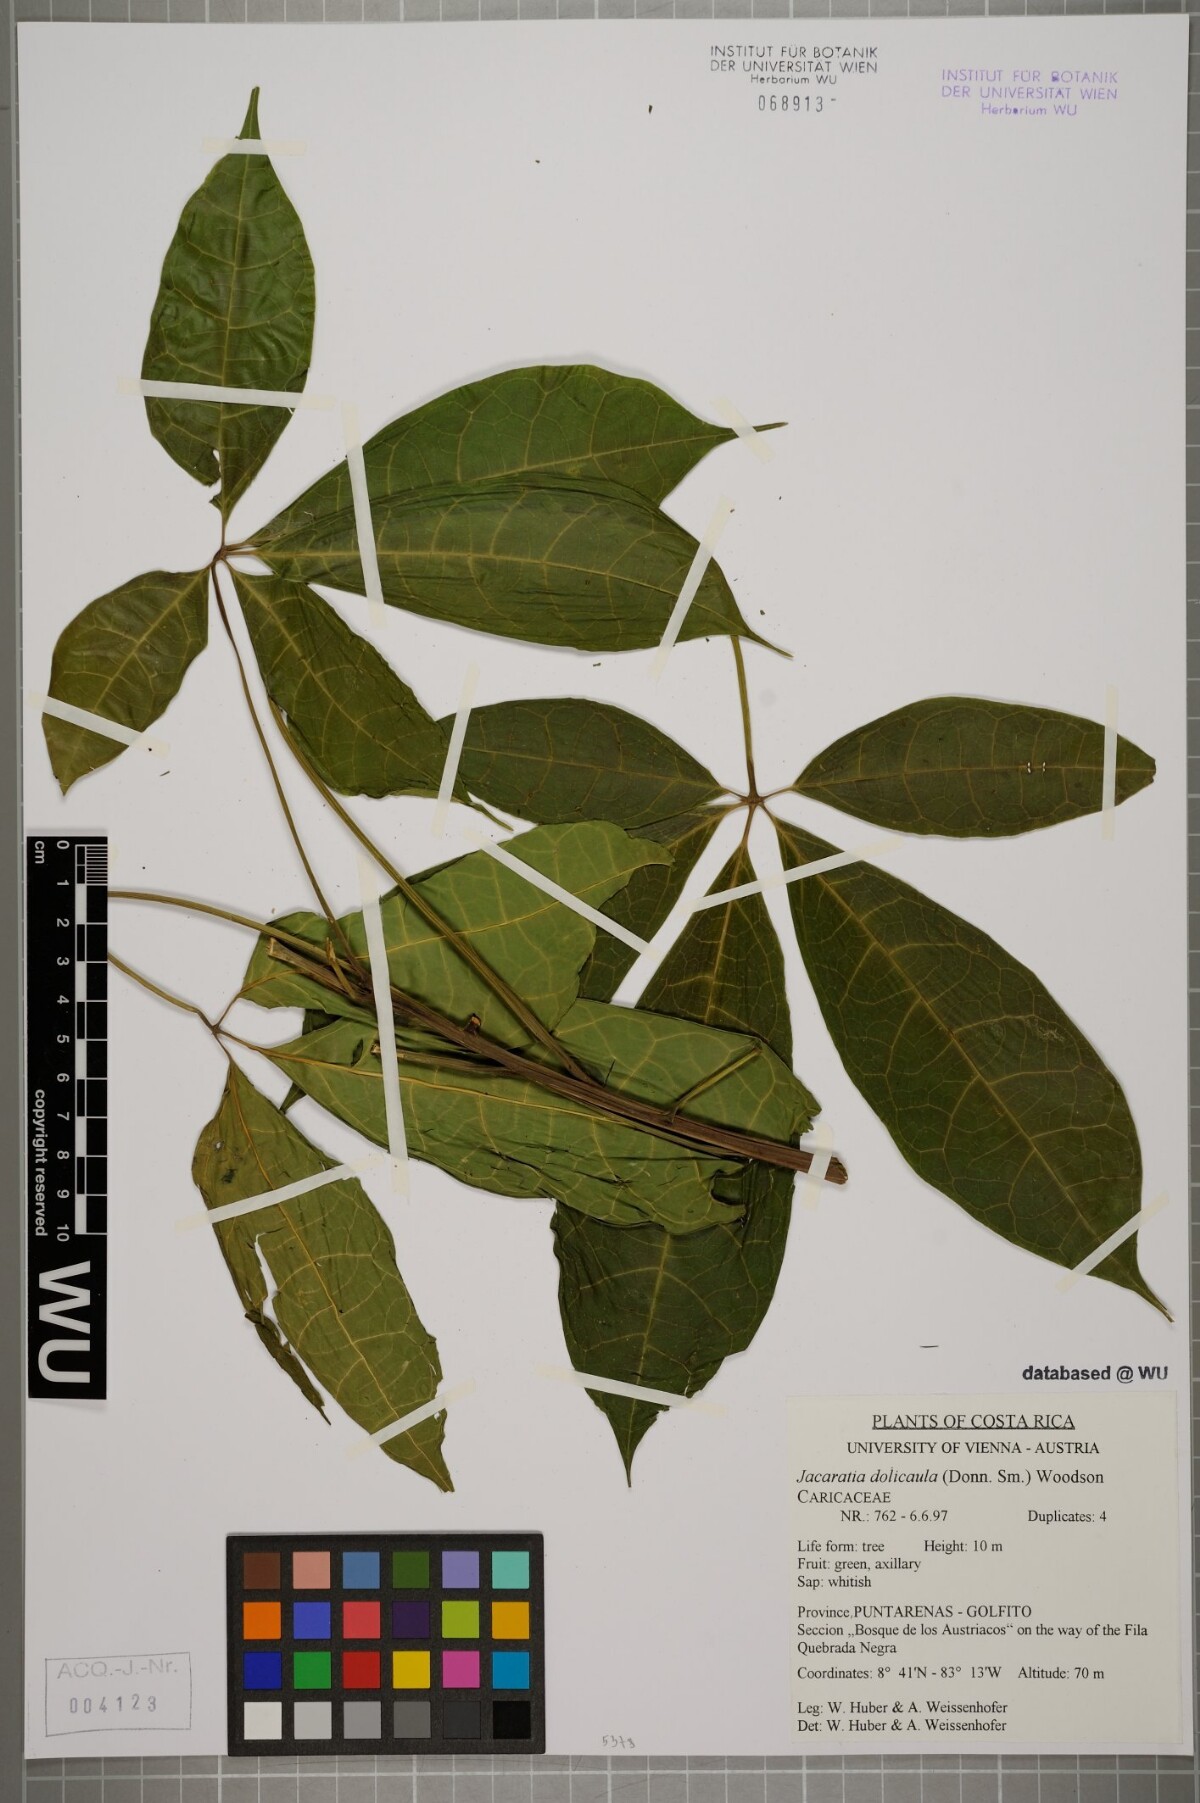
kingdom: Plantae
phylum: Tracheophyta
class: Magnoliopsida
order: Brassicales
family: Caricaceae
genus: Jacaratia
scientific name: Jacaratia dolichaula
